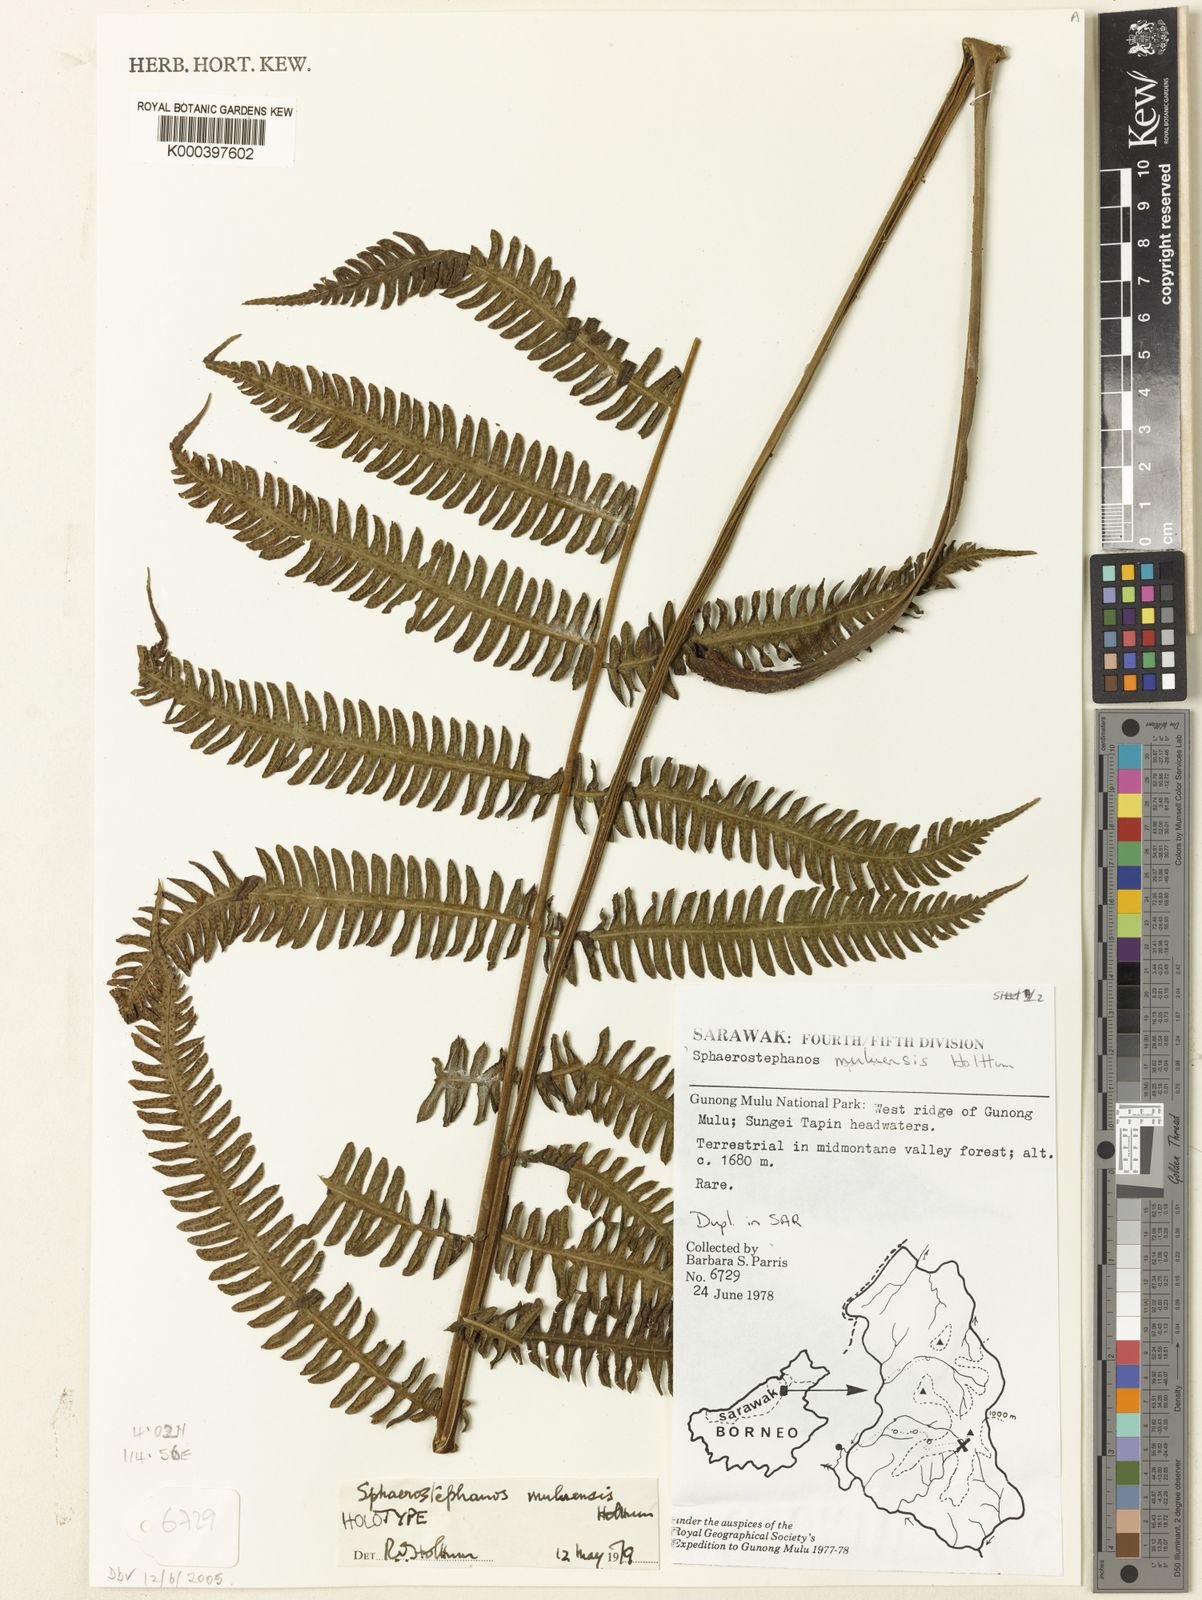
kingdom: Plantae
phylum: Tracheophyta
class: Polypodiopsida
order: Polypodiales
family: Thelypteridaceae
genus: Sphaerostephanos
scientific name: Sphaerostephanos muluensis
